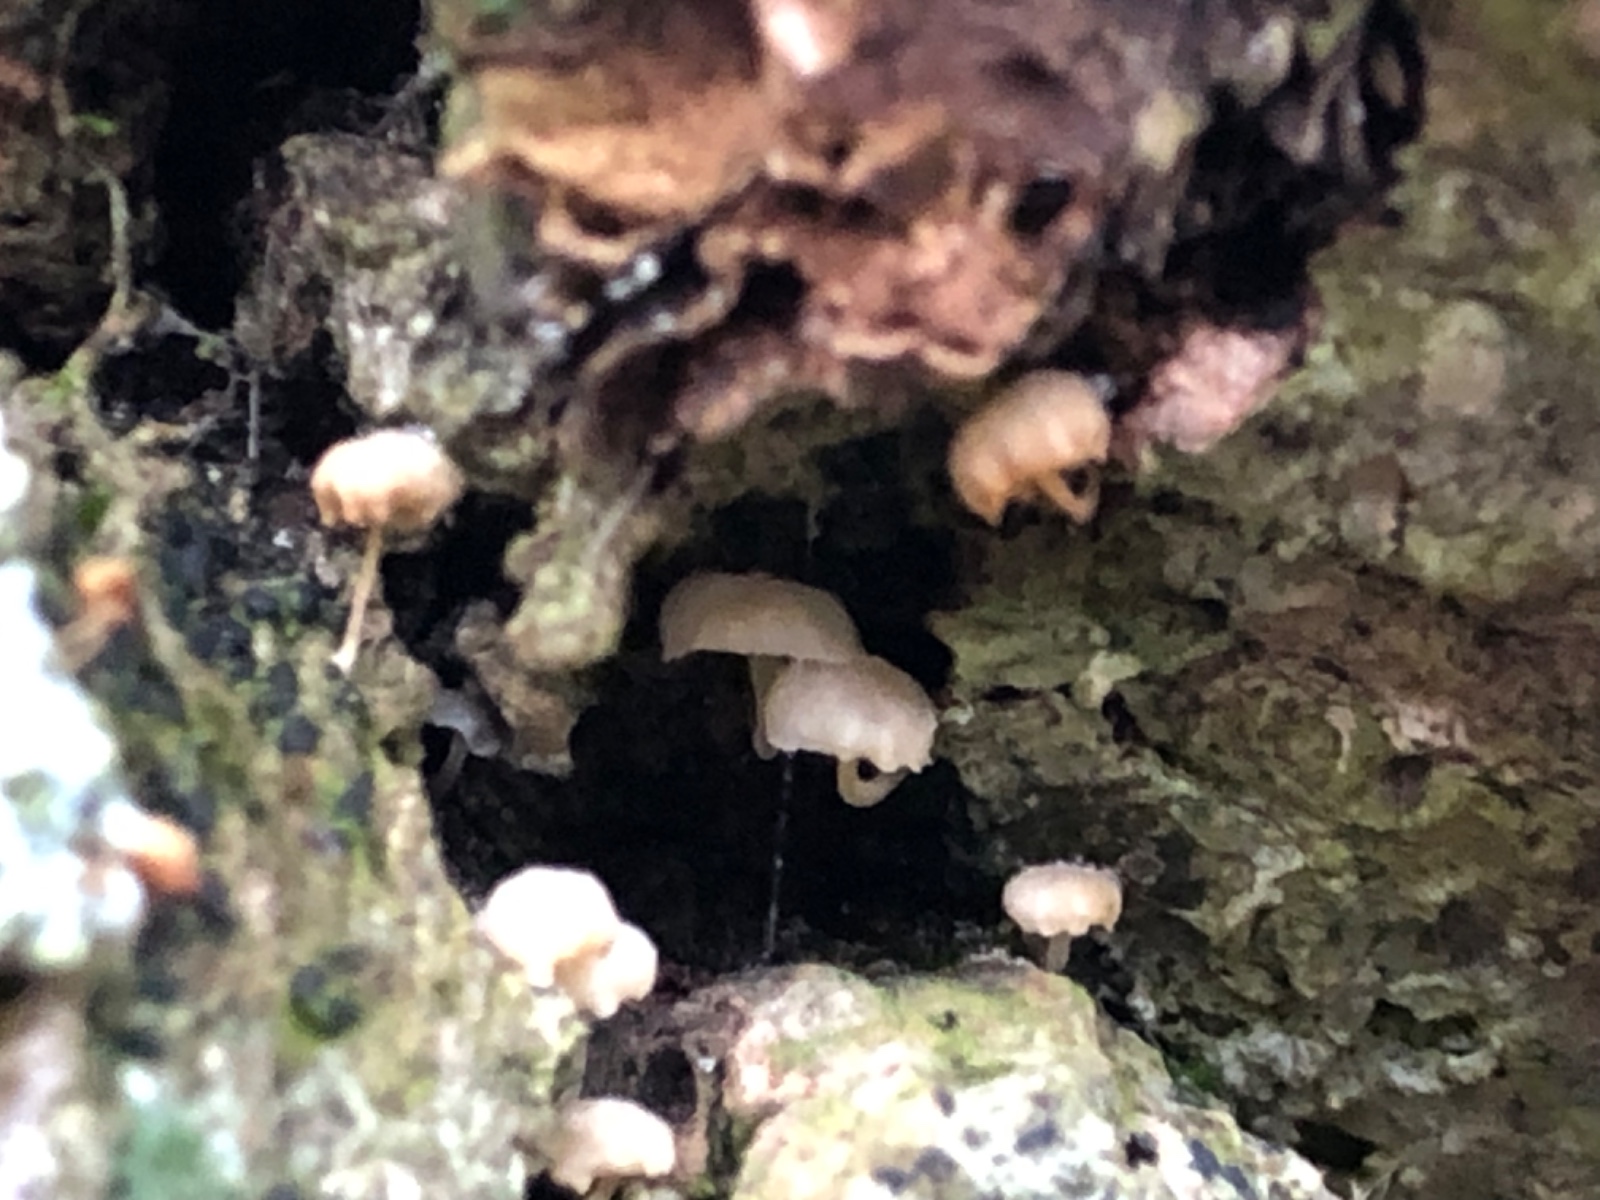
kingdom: Fungi
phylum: Basidiomycota
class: Agaricomycetes
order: Agaricales
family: Porotheleaceae
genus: Phloeomana
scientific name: Phloeomana
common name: huesvamp
